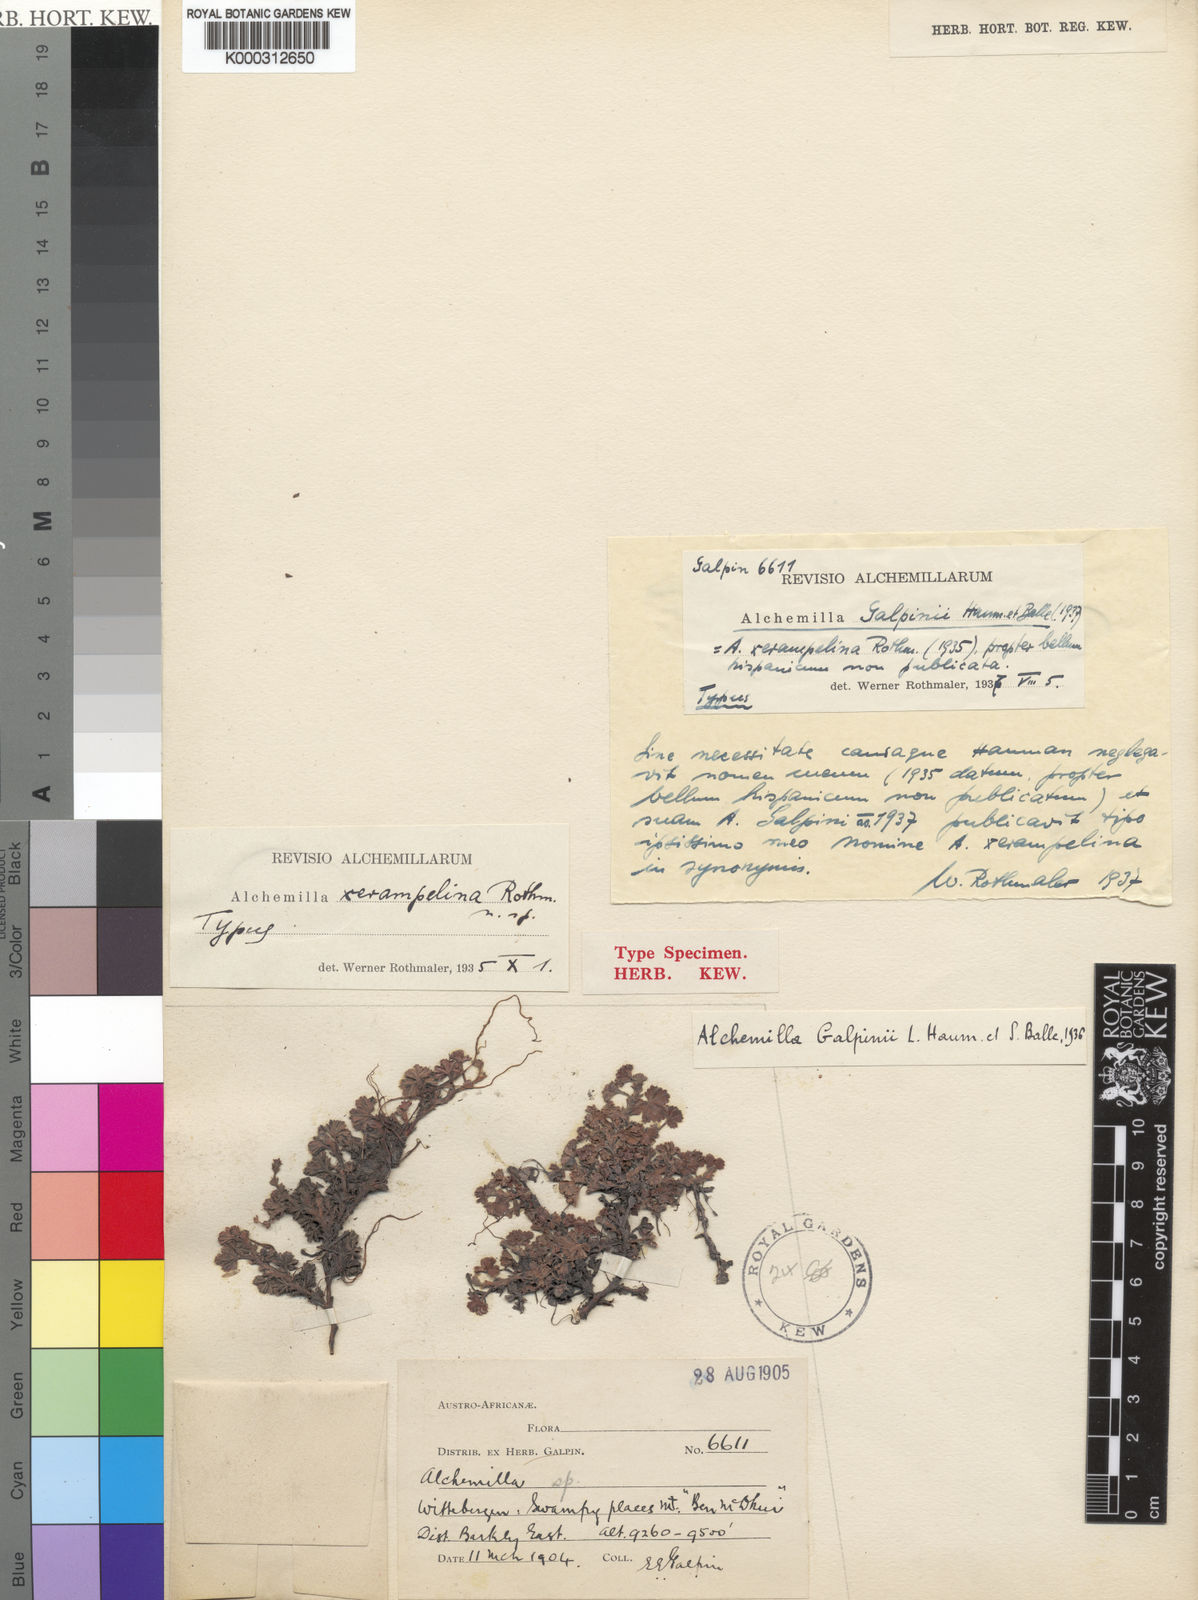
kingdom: Plantae
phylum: Tracheophyta
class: Magnoliopsida
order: Rosales
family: Rosaceae
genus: Alchemilla
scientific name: Alchemilla
